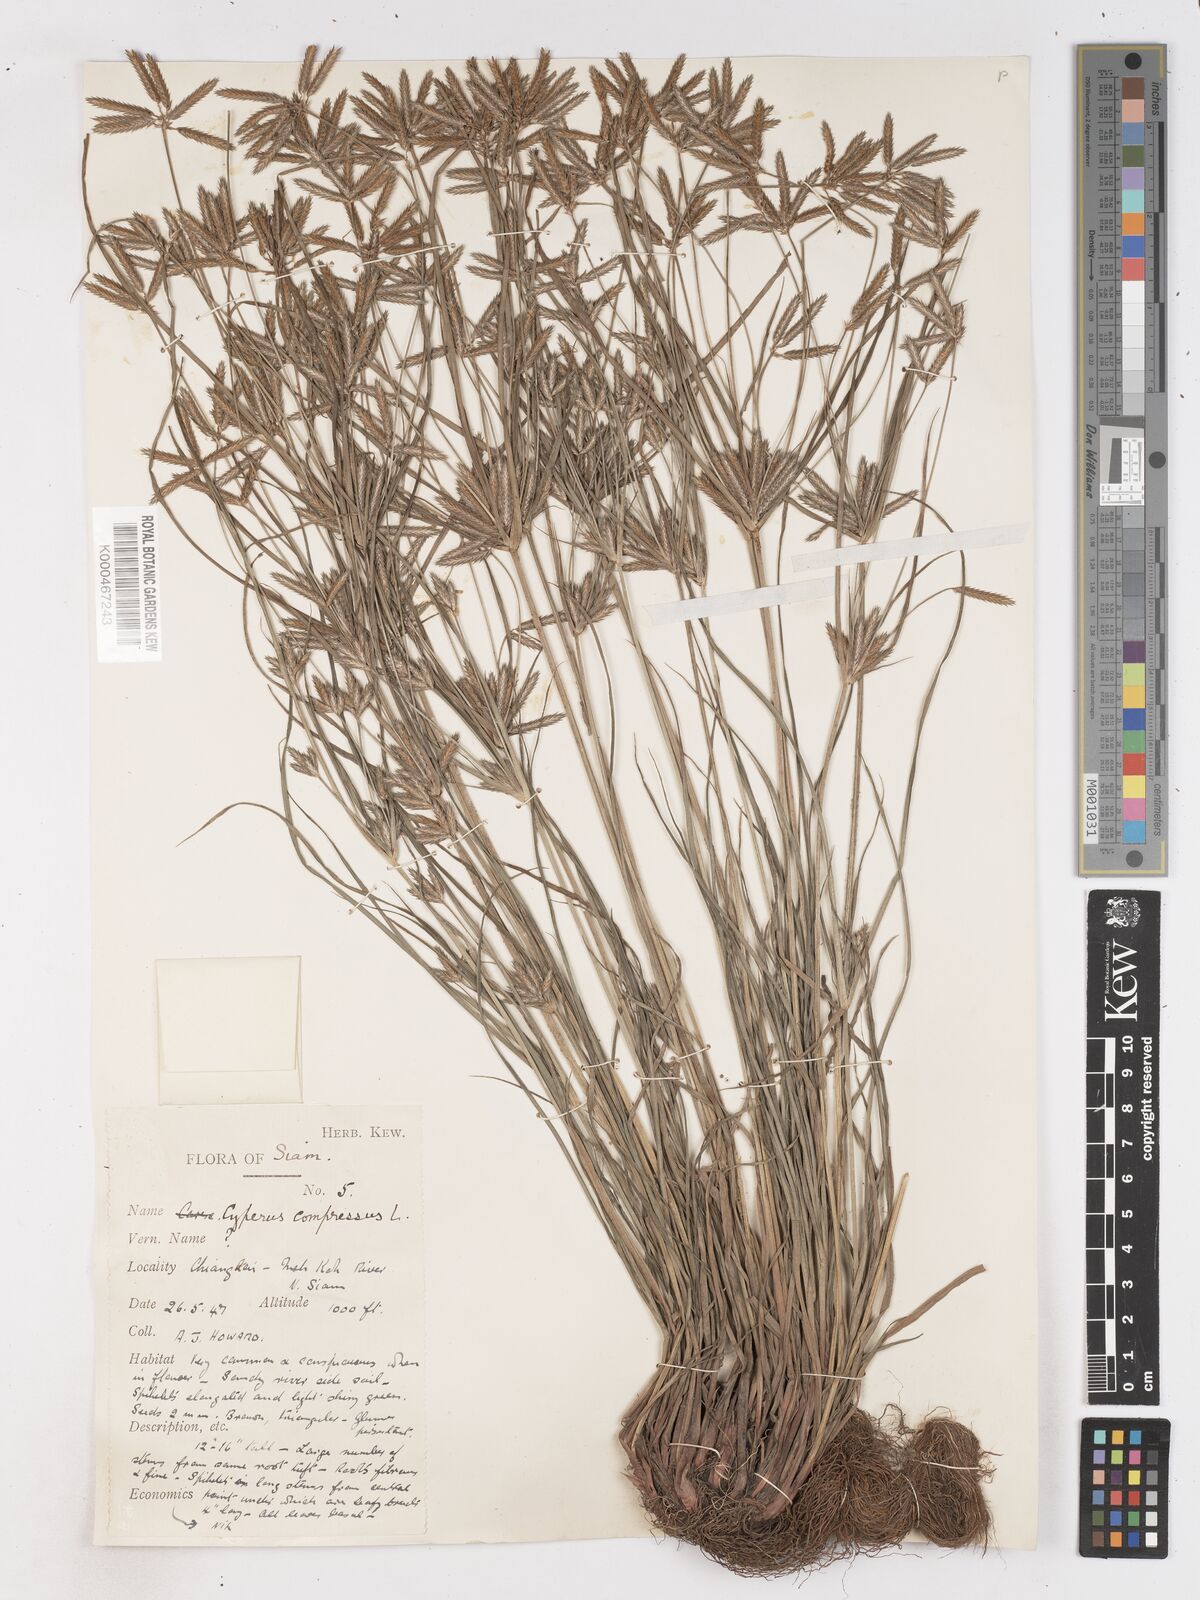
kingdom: Plantae
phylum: Tracheophyta
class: Liliopsida
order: Poales
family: Cyperaceae
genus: Cyperus
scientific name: Cyperus compressus
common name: Poorland flatsedge
